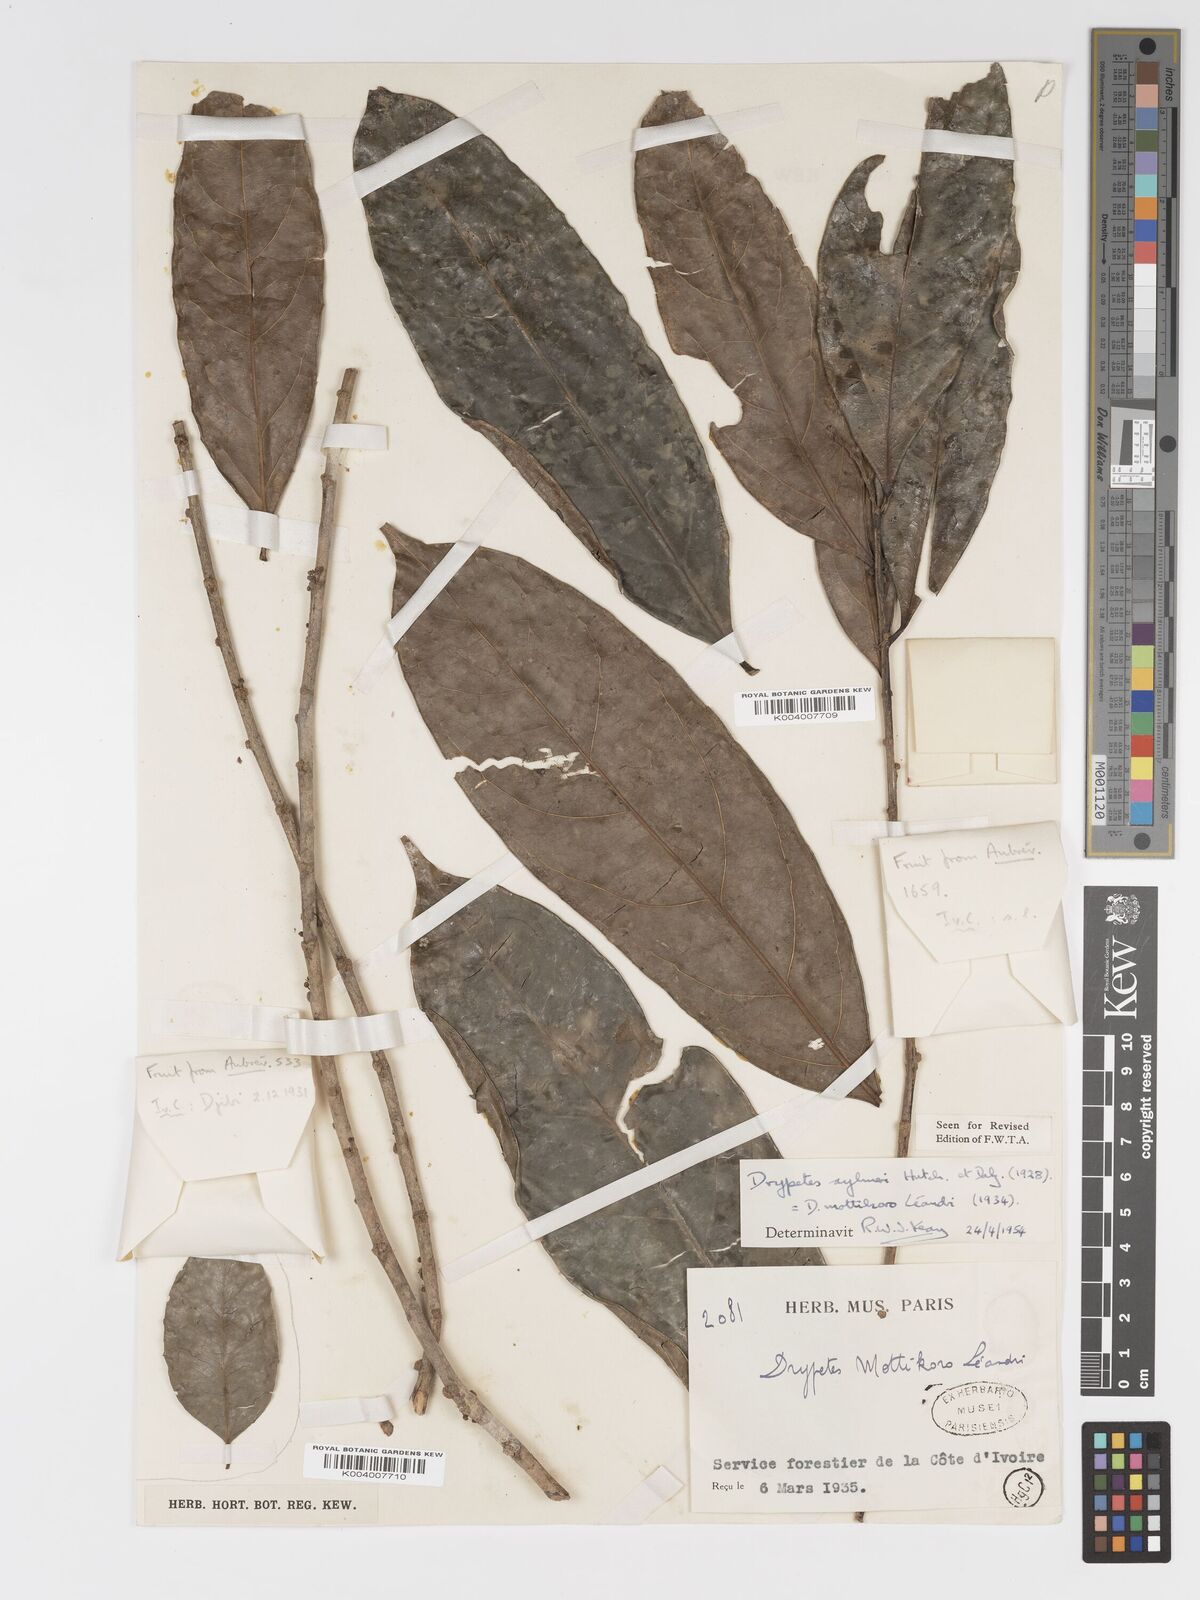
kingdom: Plantae
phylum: Tracheophyta
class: Magnoliopsida
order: Malpighiales
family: Putranjivaceae
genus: Drypetes
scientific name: Drypetes aylmeri
